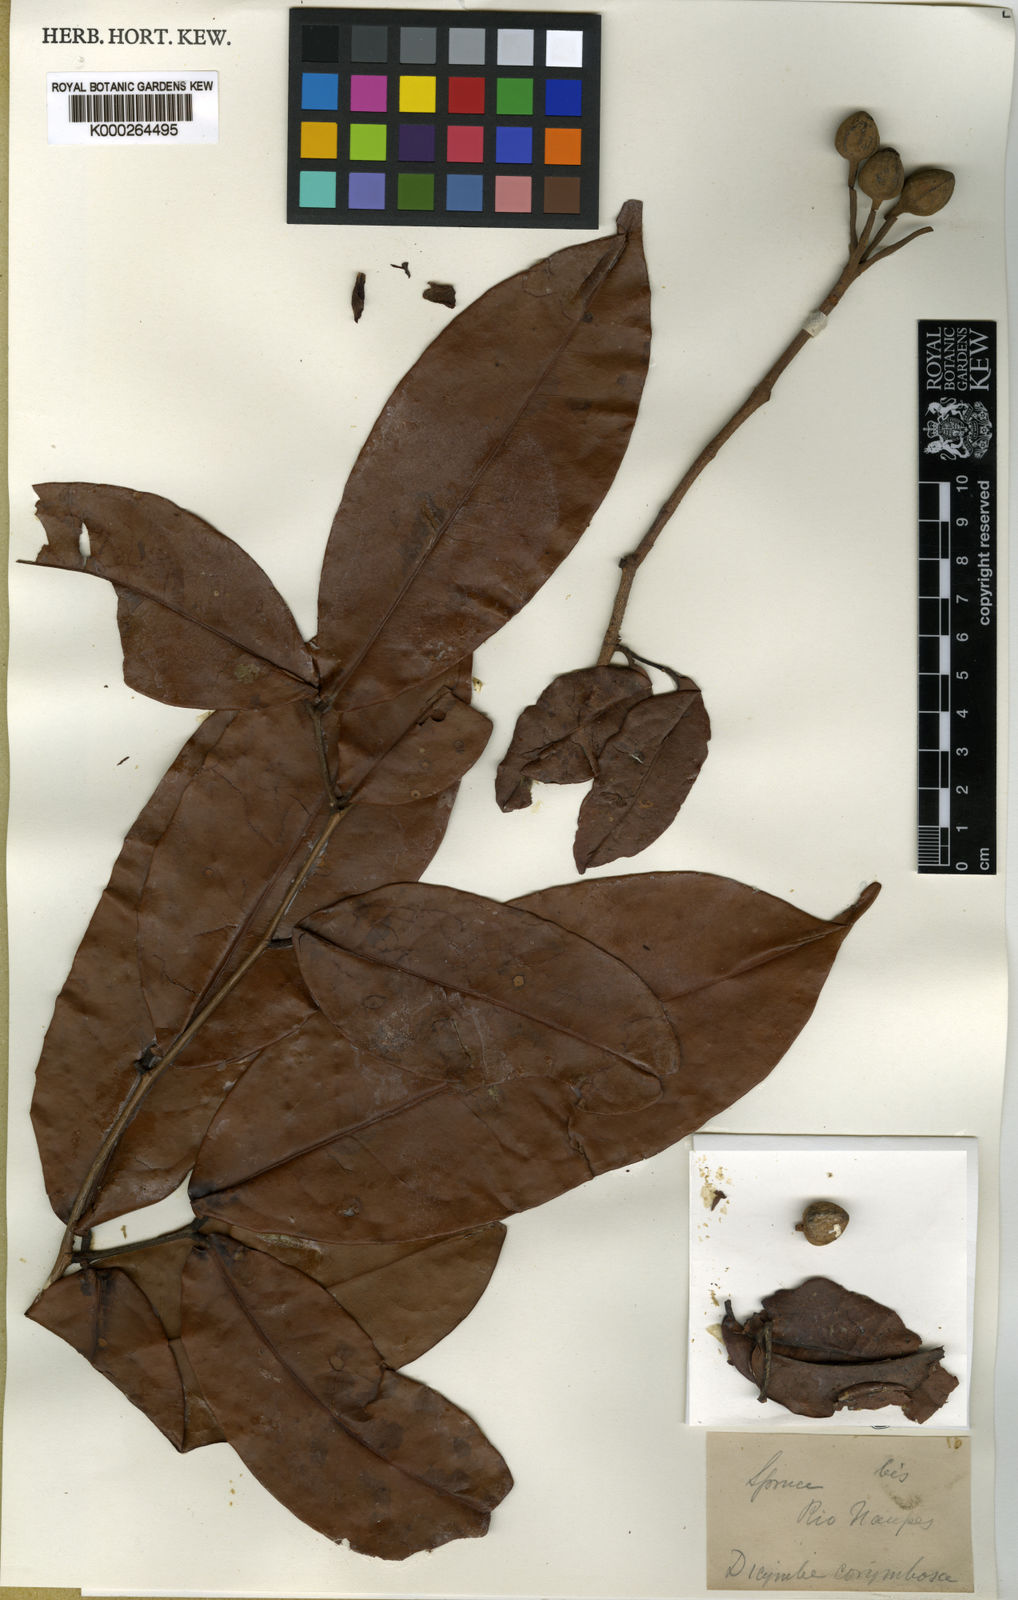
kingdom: Plantae
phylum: Tracheophyta
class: Magnoliopsida
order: Fabales
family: Fabaceae
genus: Dicymbe
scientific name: Dicymbe corymbosa
